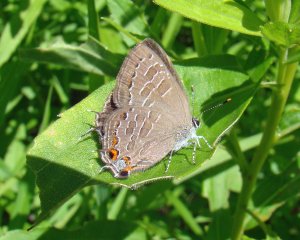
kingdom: Animalia
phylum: Arthropoda
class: Insecta
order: Lepidoptera
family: Lycaenidae
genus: Satyrium
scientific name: Satyrium liparops
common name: Striped Hairstreak
